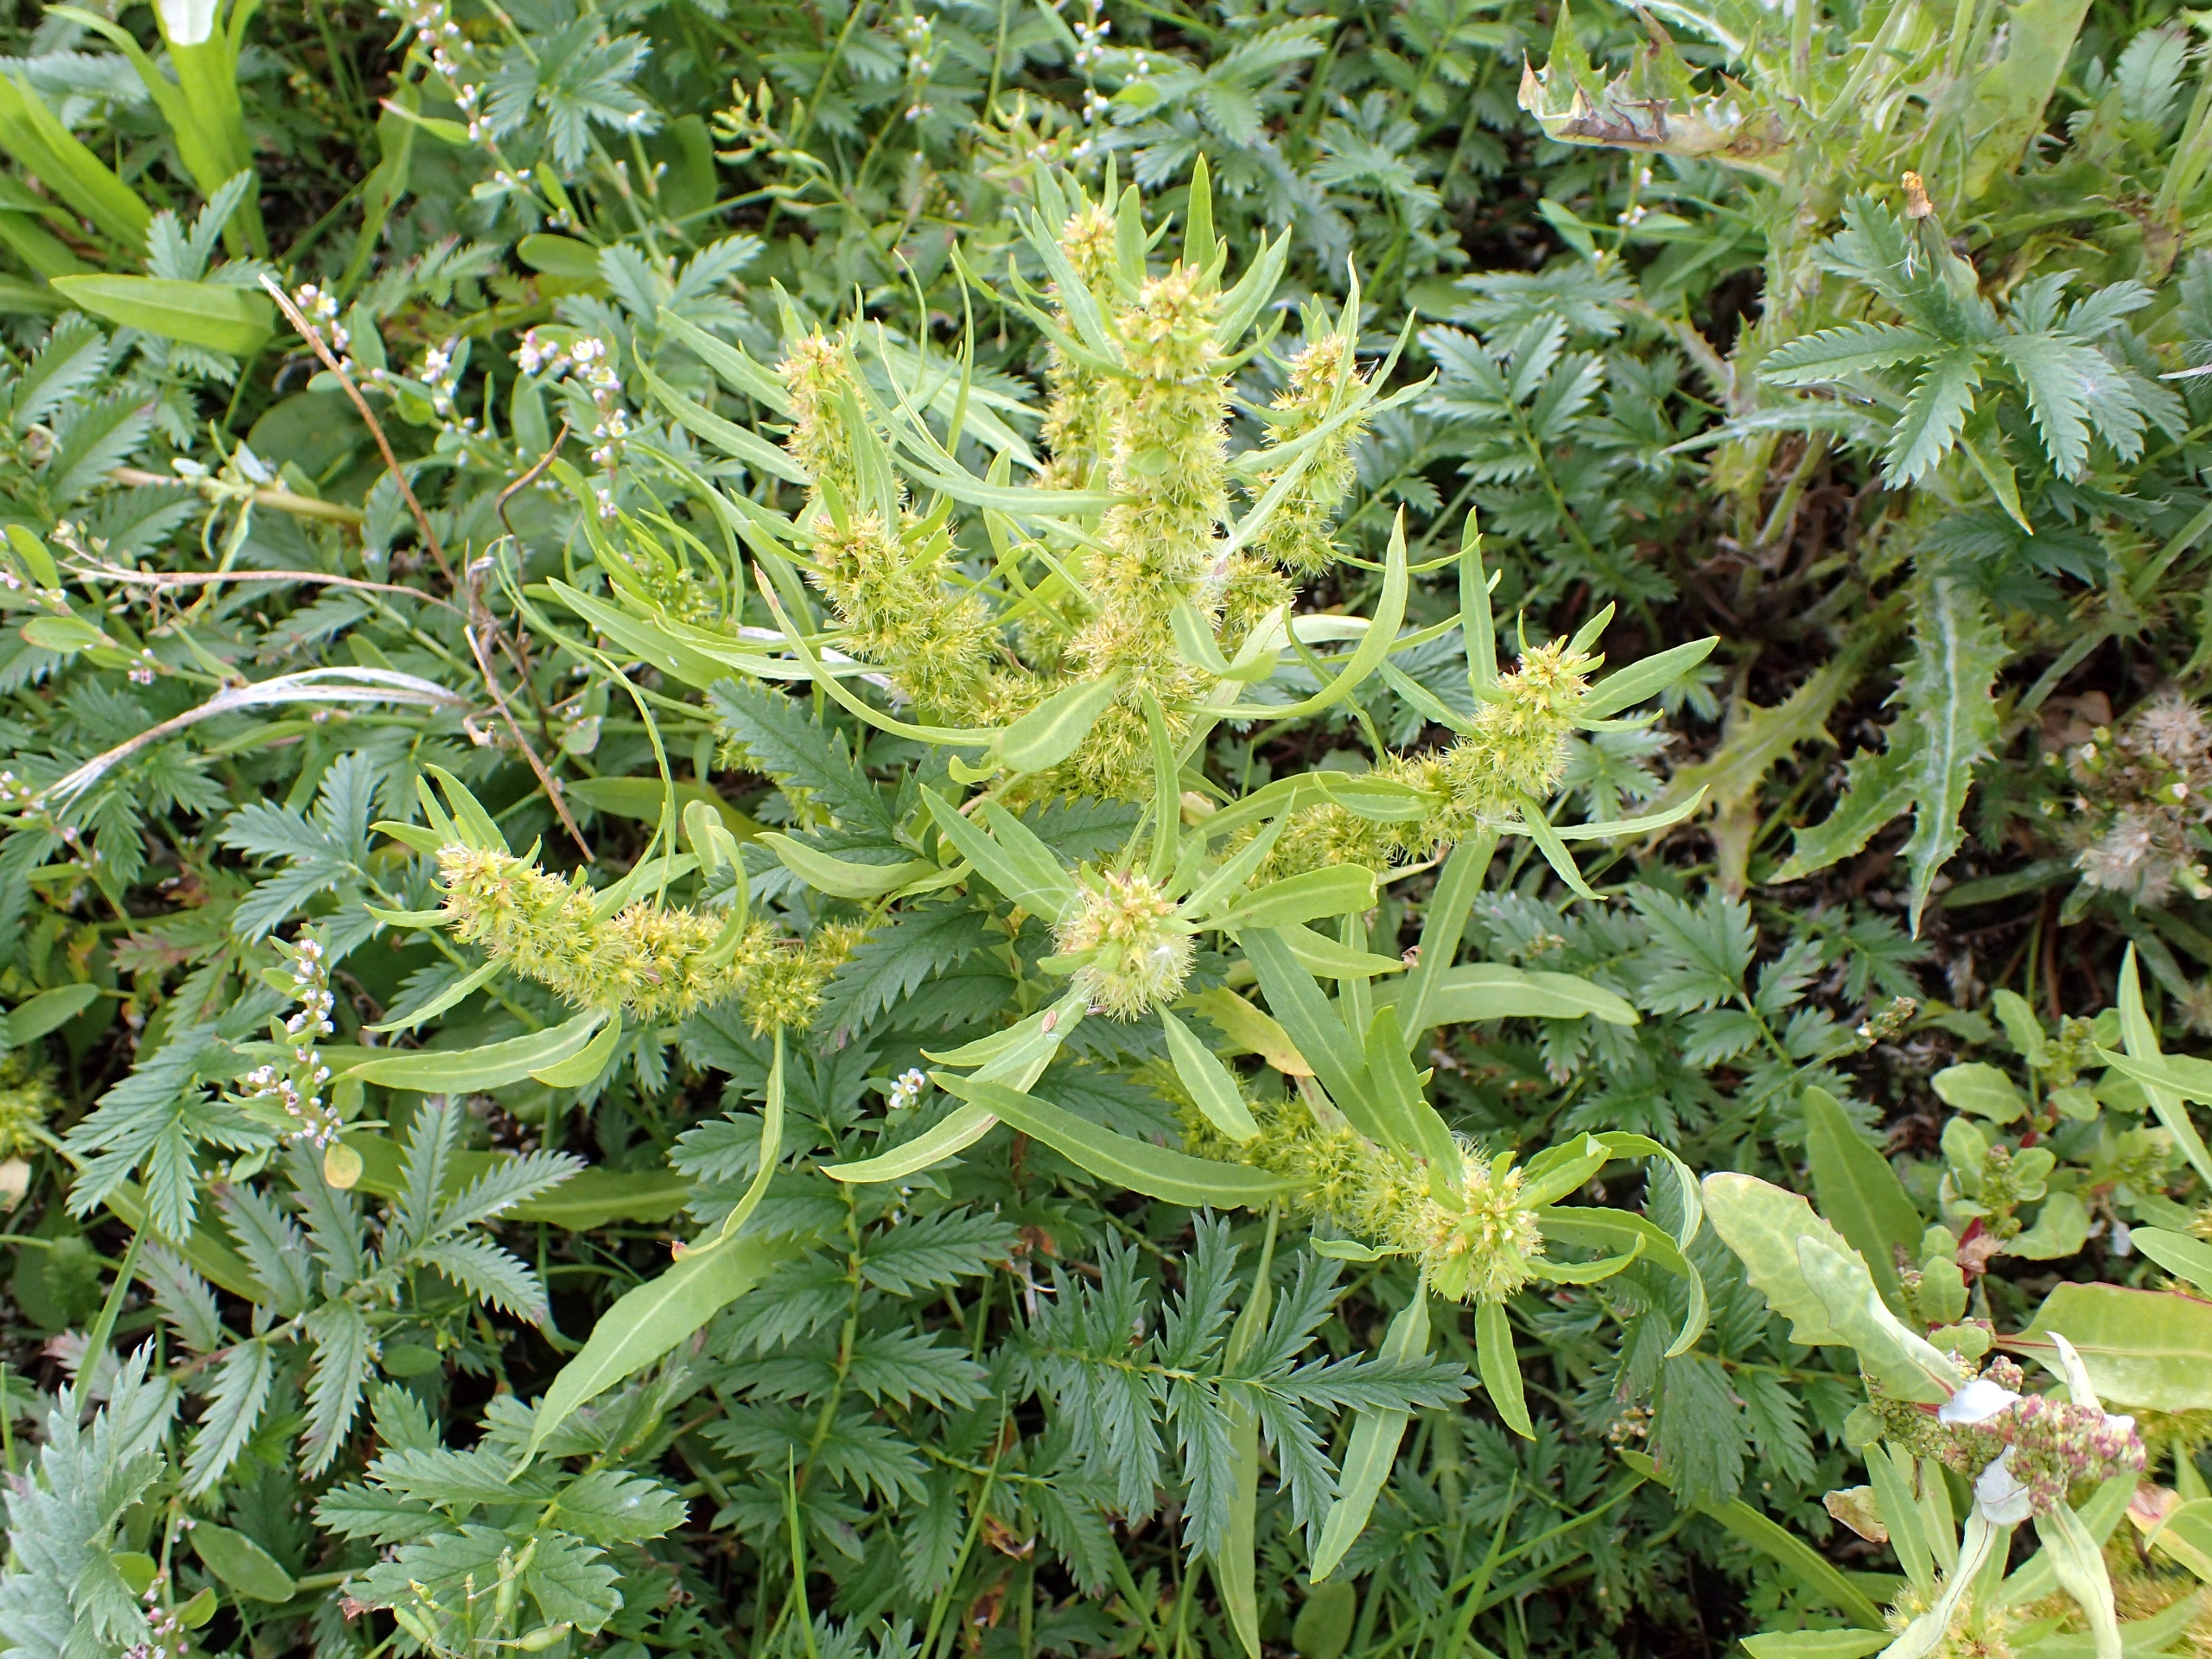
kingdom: Plantae
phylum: Tracheophyta
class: Magnoliopsida
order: Caryophyllales
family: Polygonaceae
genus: Rumex
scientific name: Rumex maritimus
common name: Strand-skræppe
